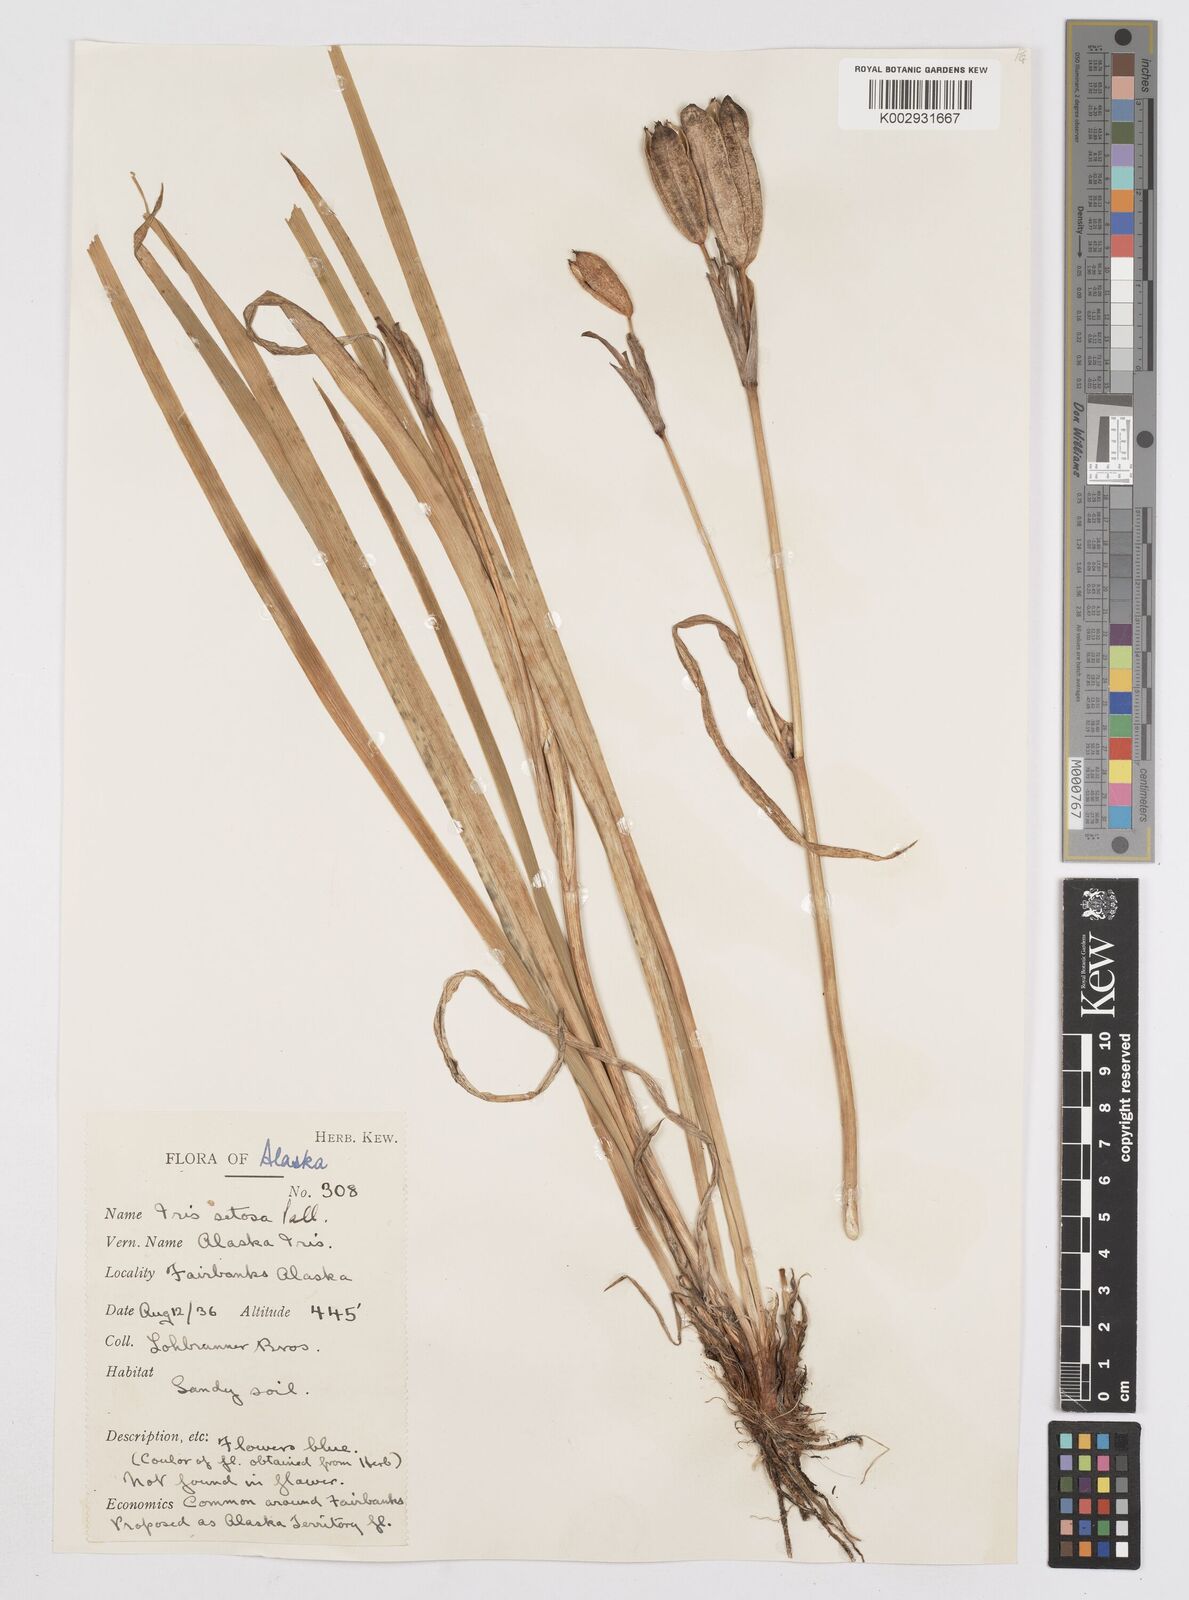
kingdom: Plantae
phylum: Tracheophyta
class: Liliopsida
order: Asparagales
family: Iridaceae
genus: Iris
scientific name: Iris setosa
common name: Arctic blue flag
